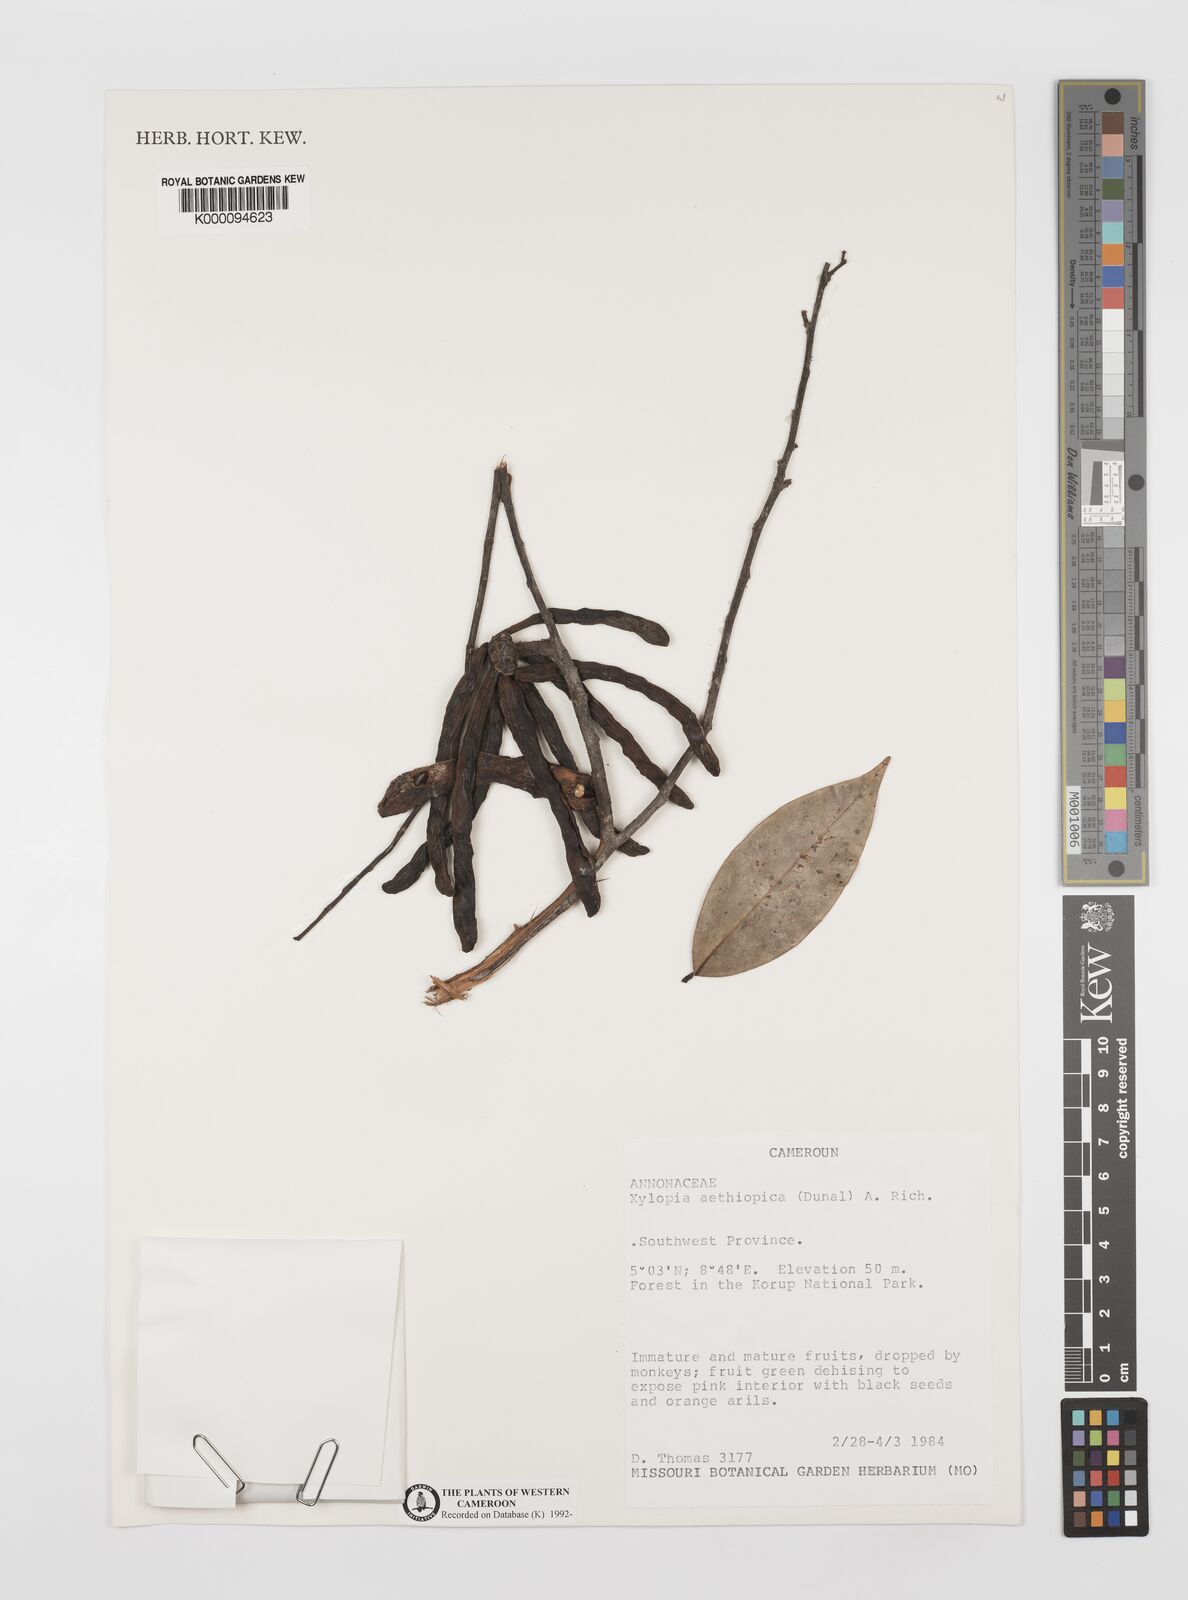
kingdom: Plantae
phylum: Tracheophyta
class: Magnoliopsida
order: Magnoliales
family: Annonaceae
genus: Xylopia
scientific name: Xylopia aethiopica
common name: Ethiopian-pepper
